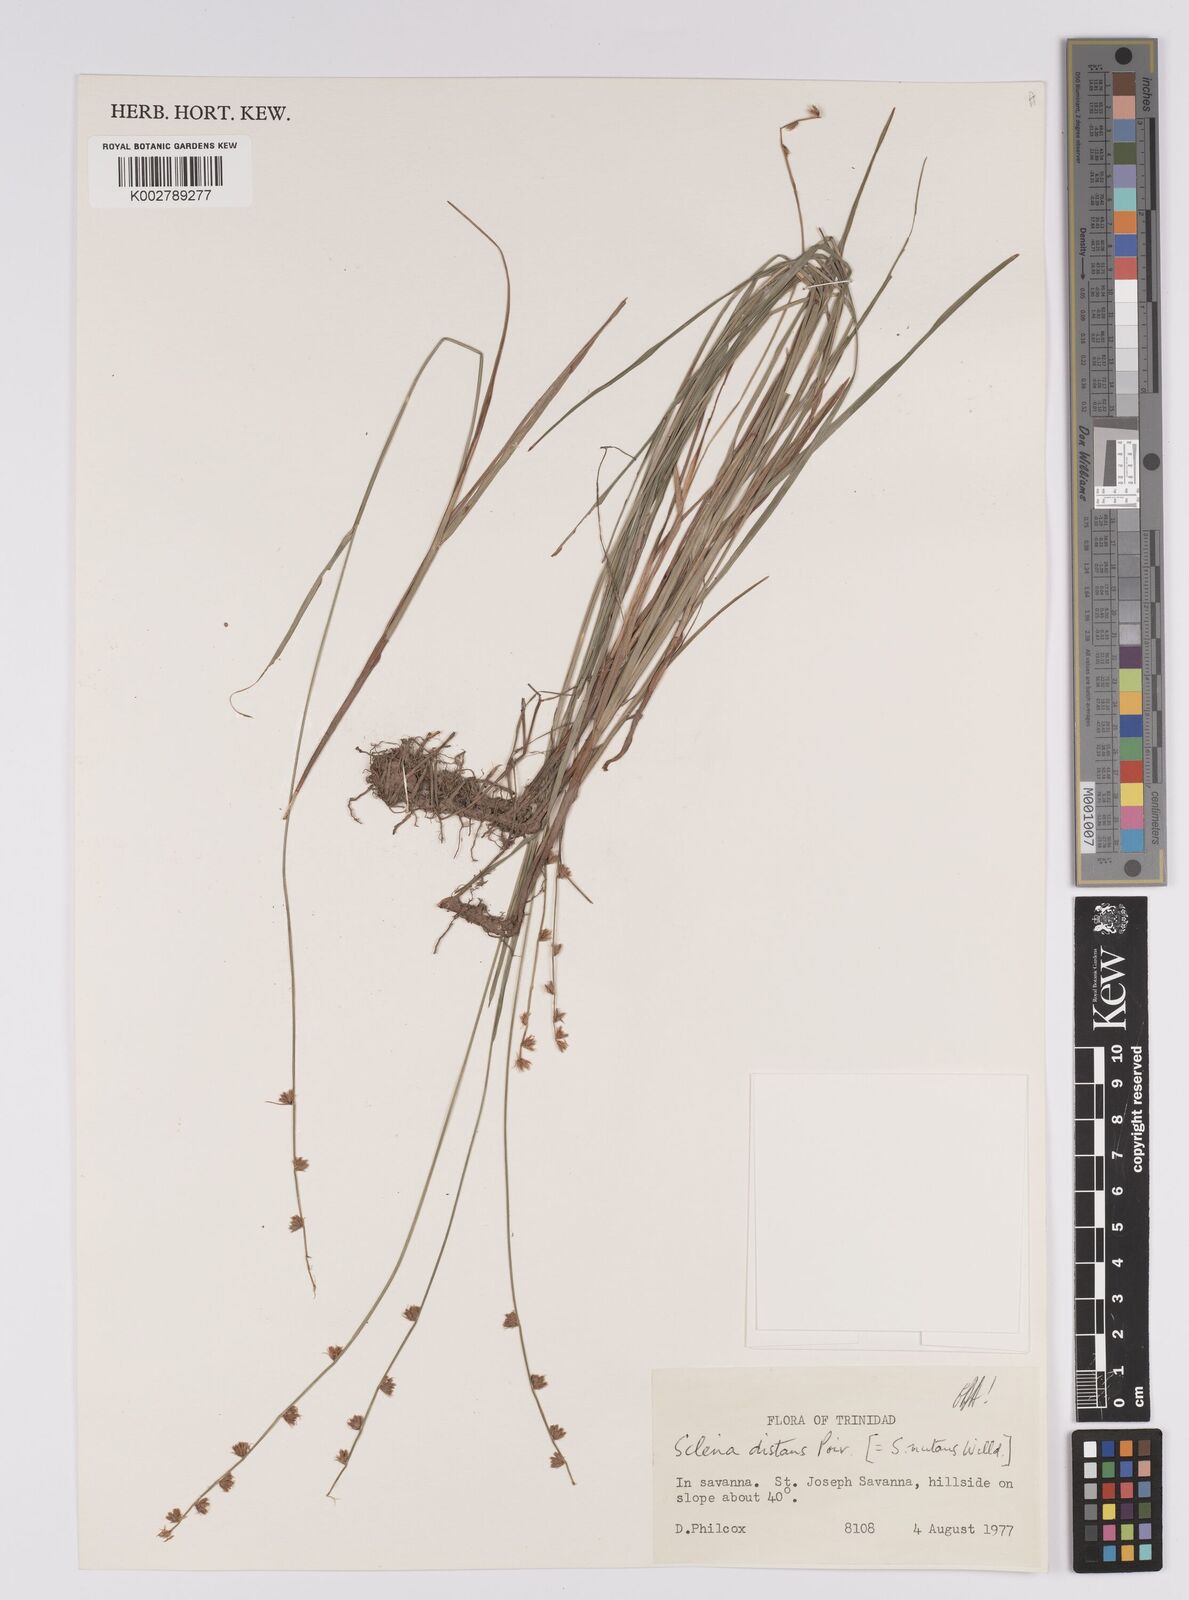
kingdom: Plantae
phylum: Tracheophyta
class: Liliopsida
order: Poales
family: Cyperaceae
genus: Scleria
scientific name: Scleria distans
